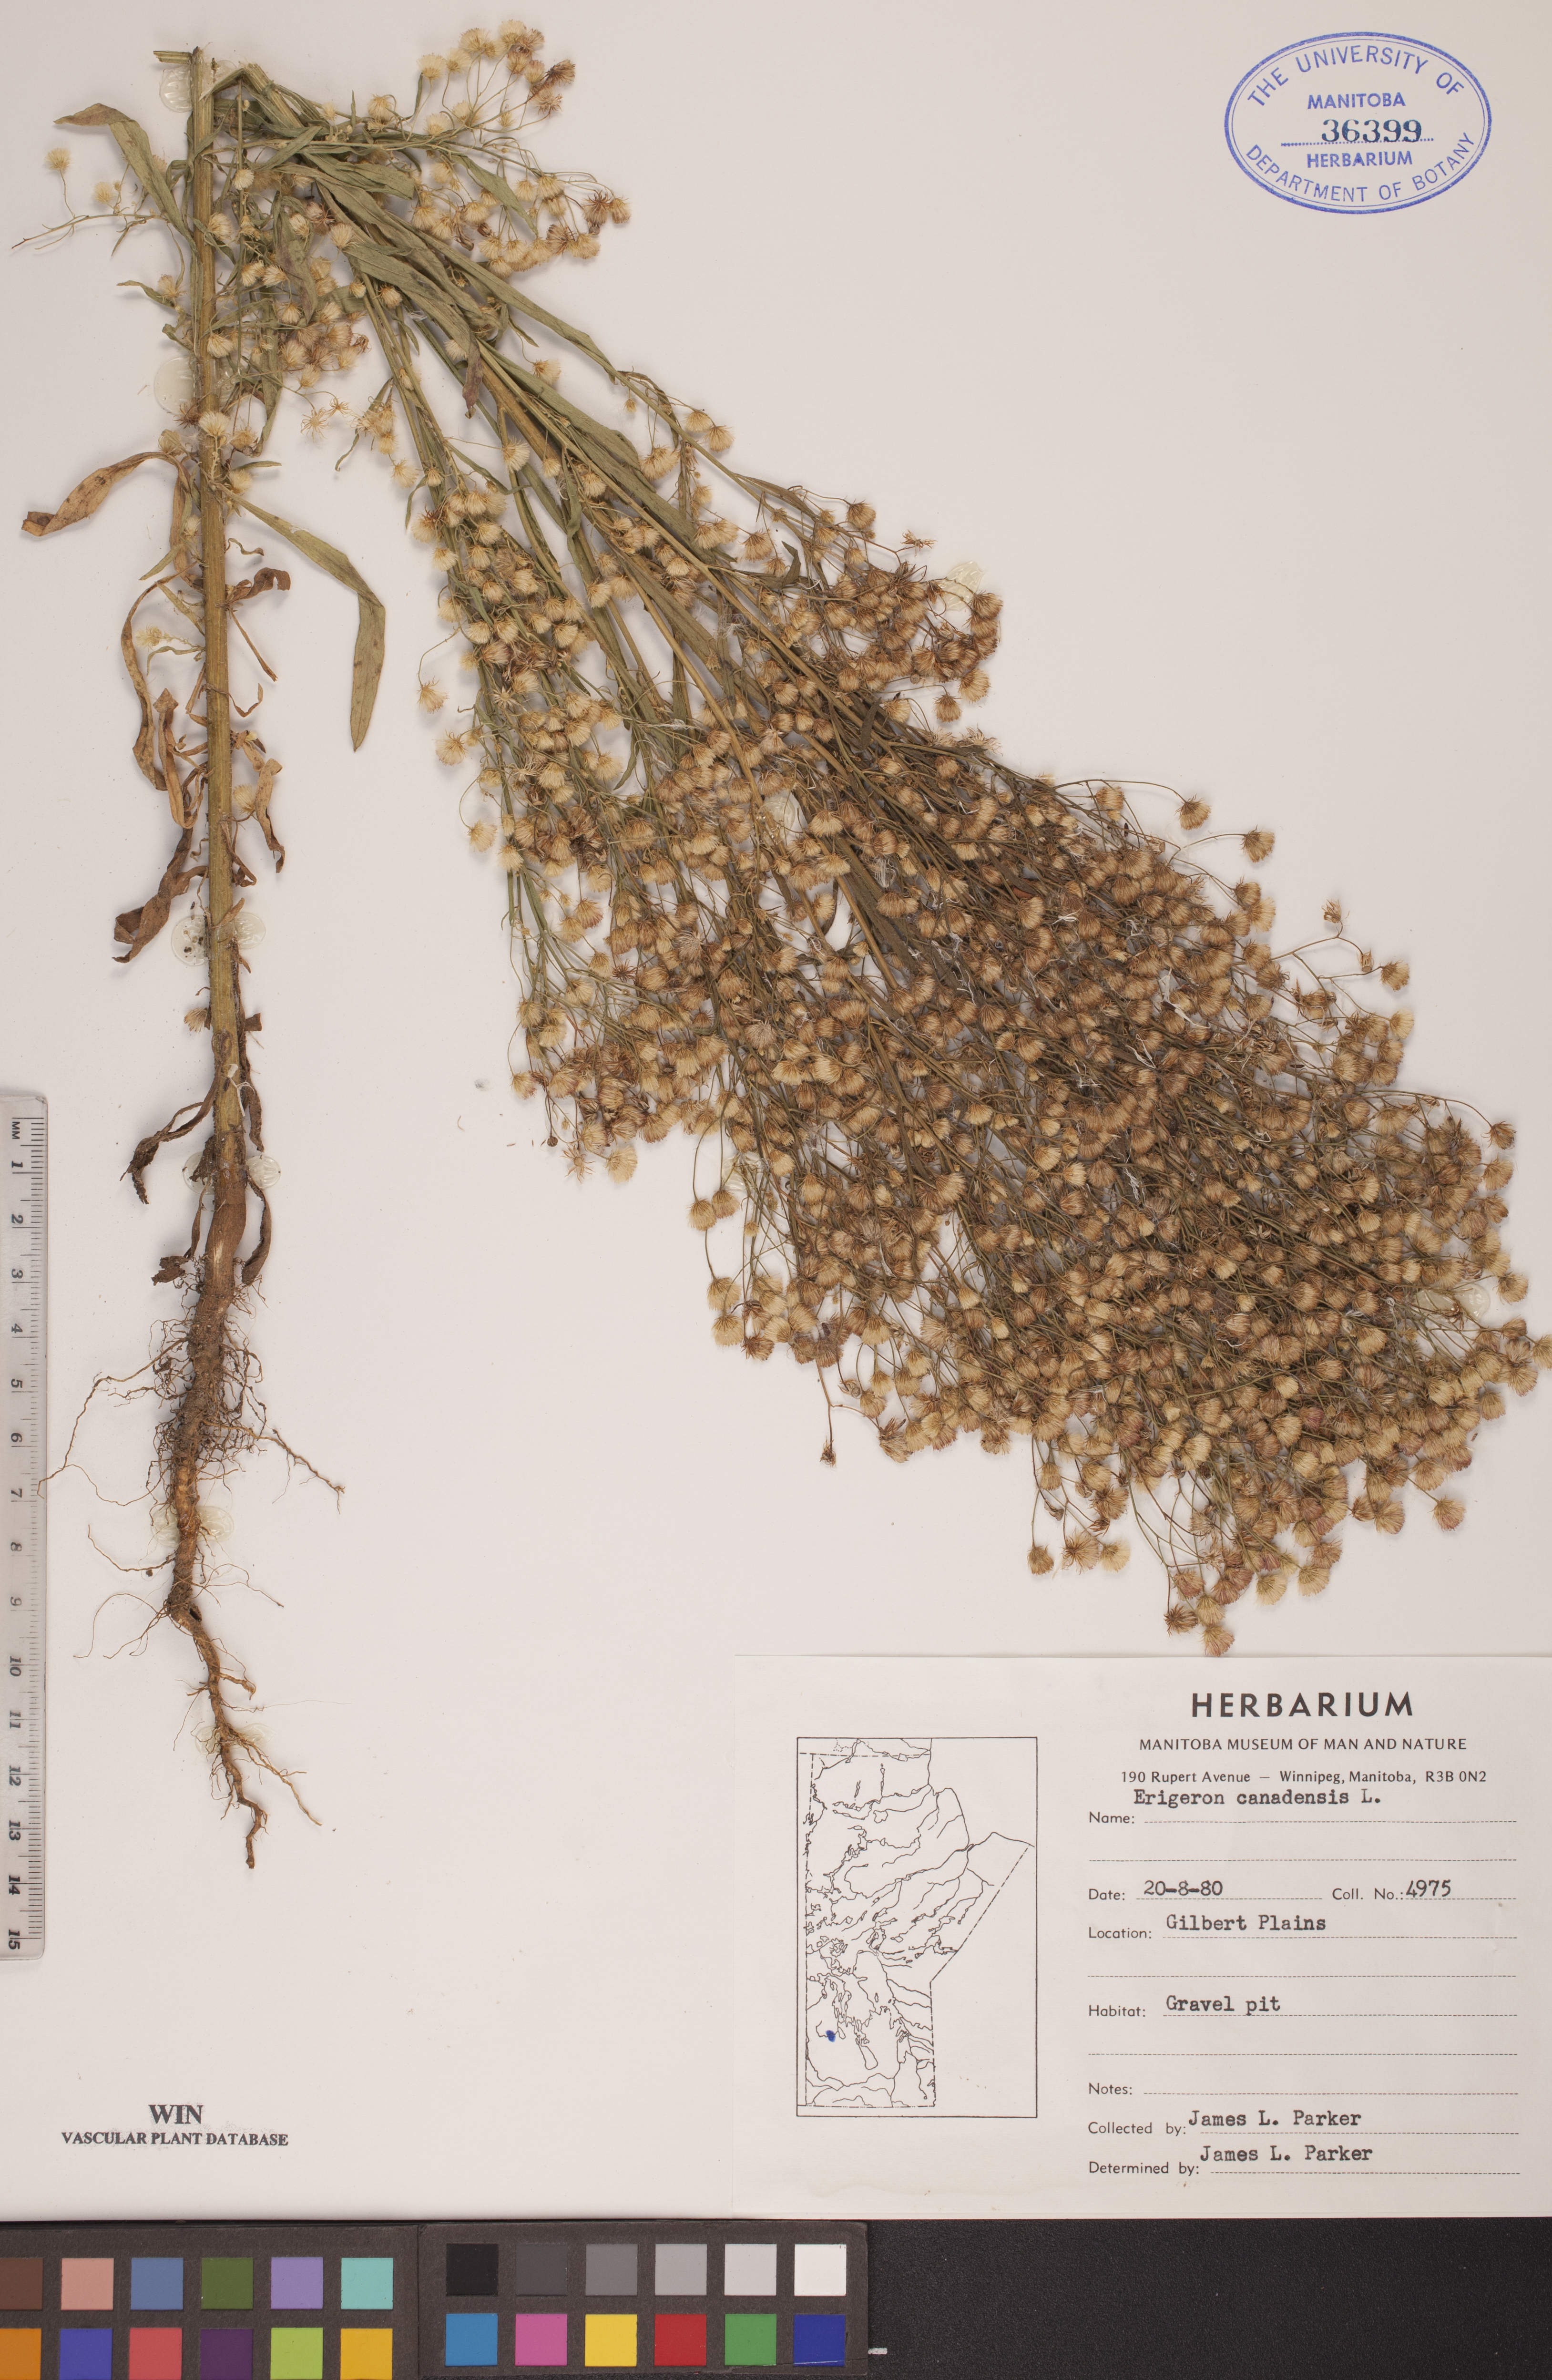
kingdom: Plantae
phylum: Tracheophyta
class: Magnoliopsida
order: Asterales
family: Asteraceae
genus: Erigeron
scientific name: Erigeron canadensis
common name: Canadian fleabane
